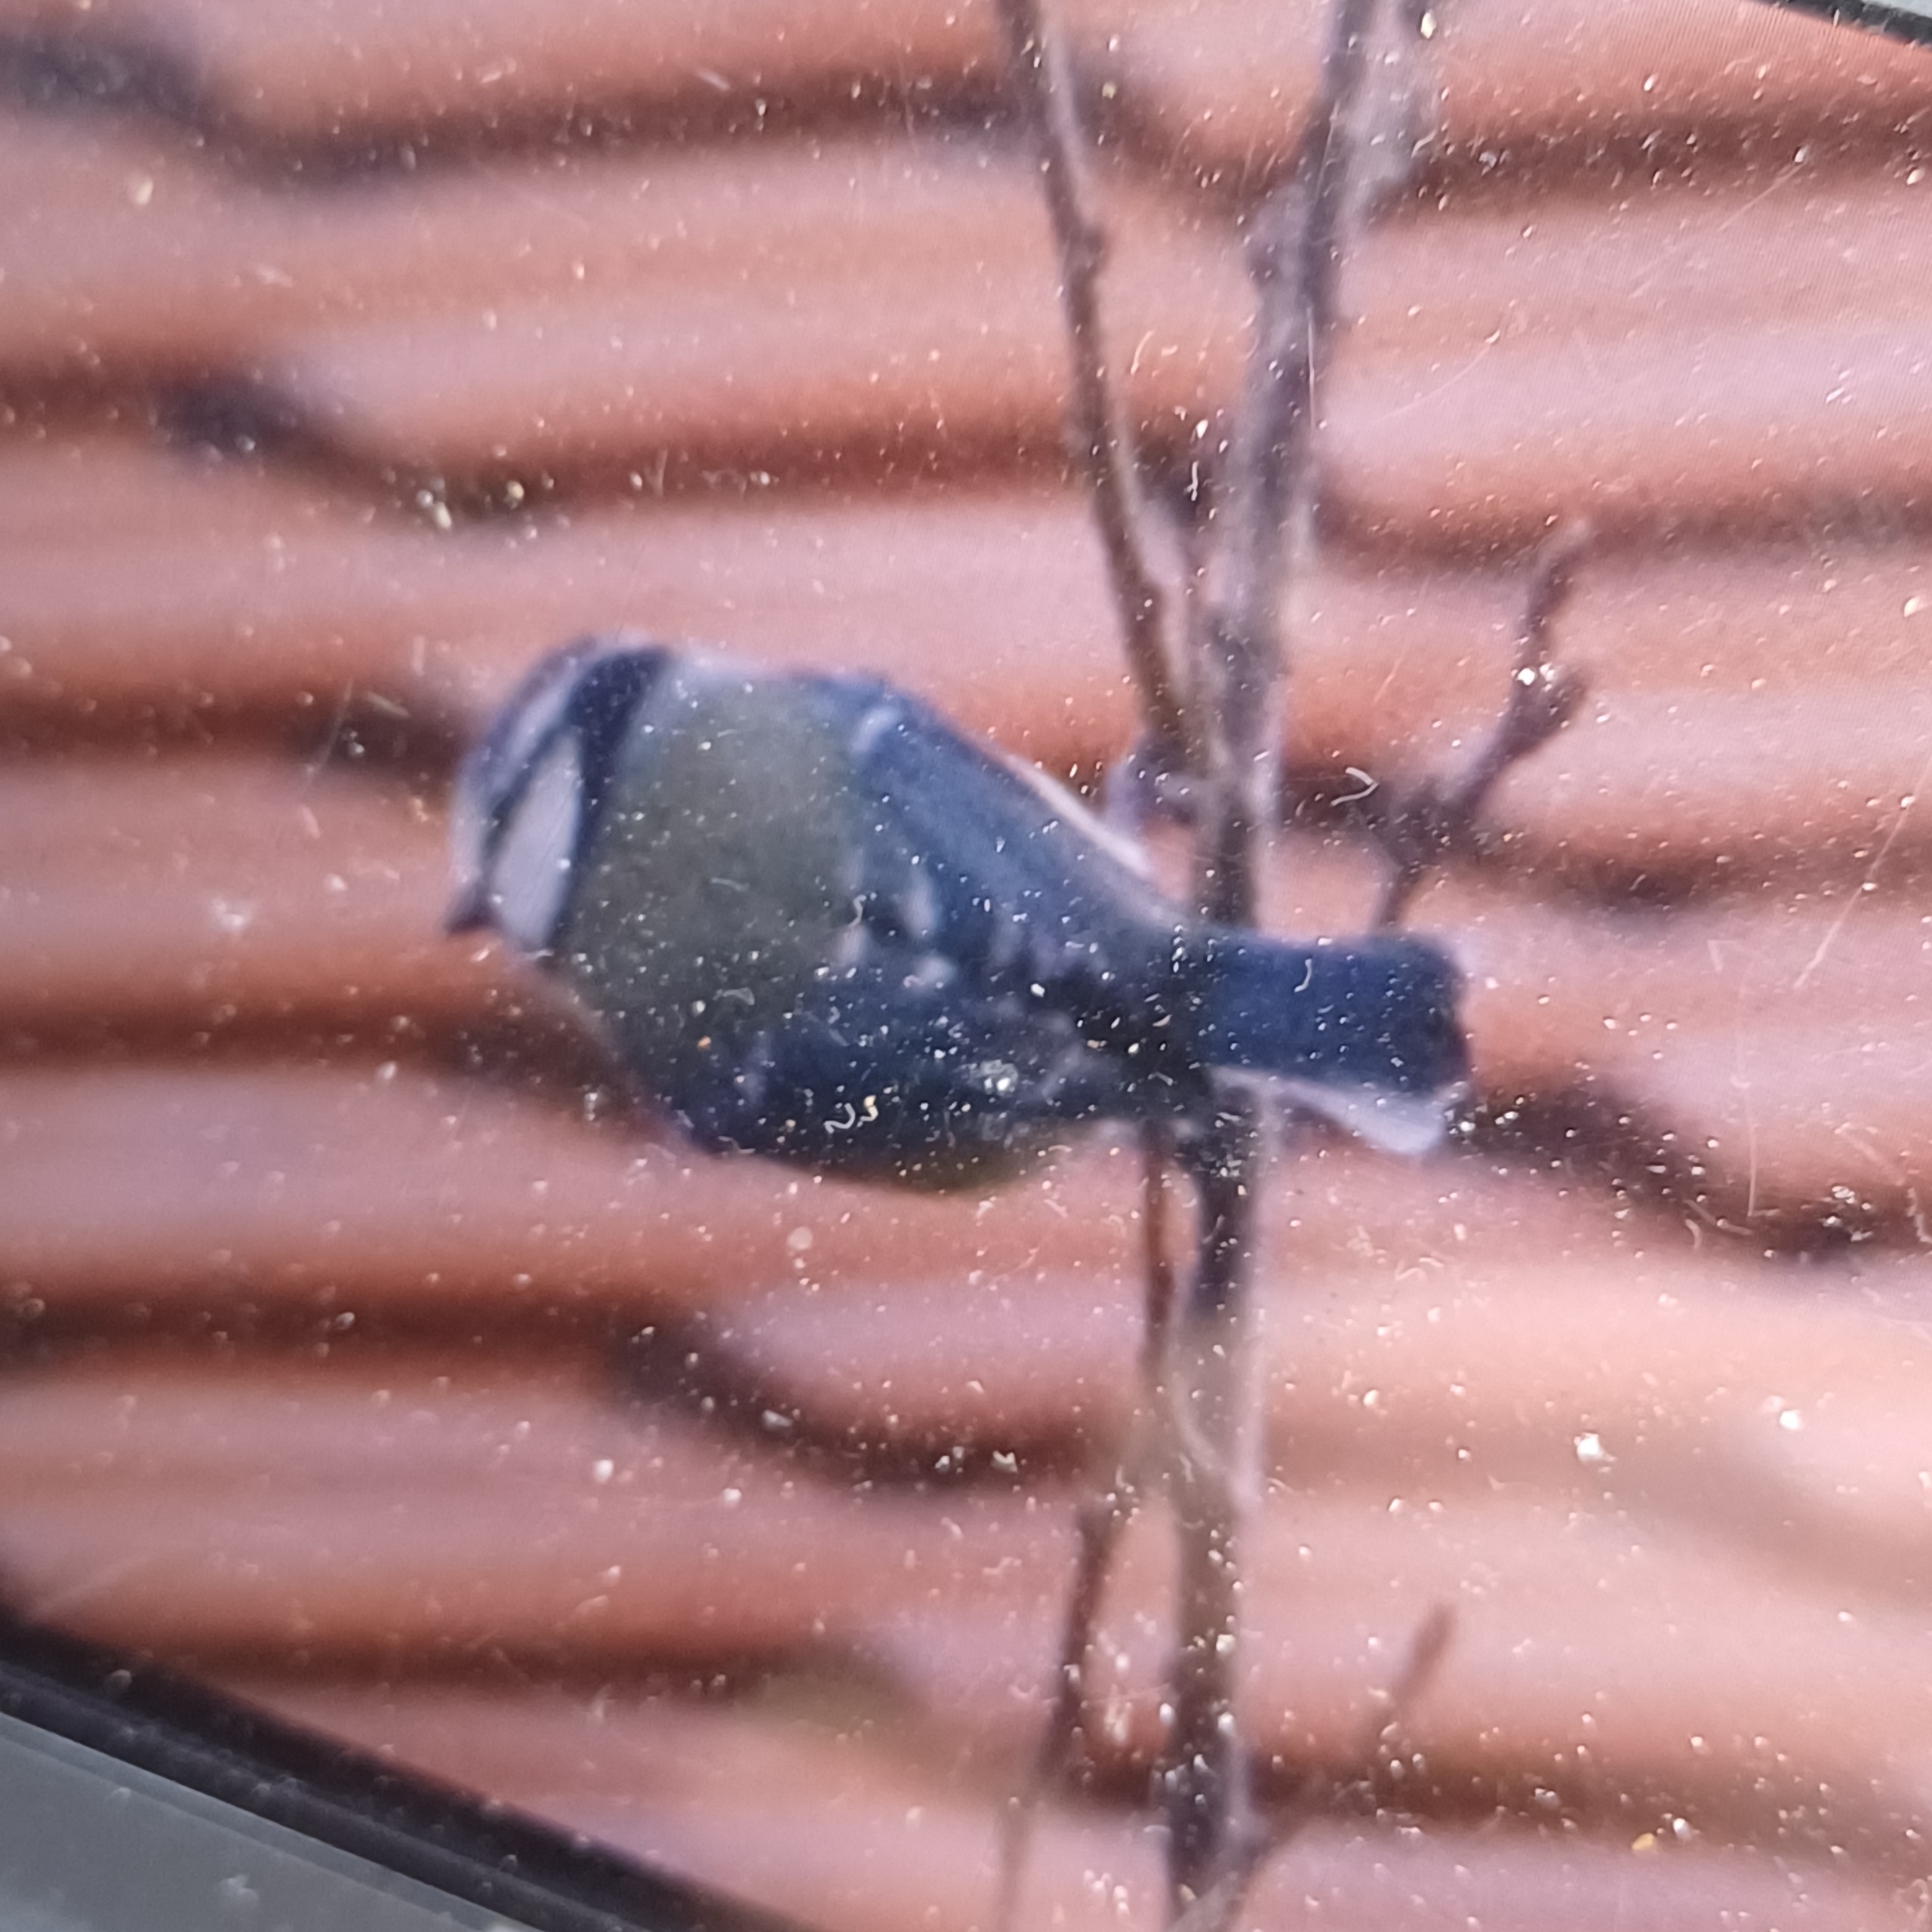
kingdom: Animalia
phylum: Chordata
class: Aves
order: Passeriformes
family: Paridae
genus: Cyanistes
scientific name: Cyanistes caeruleus
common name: Blåmejse
